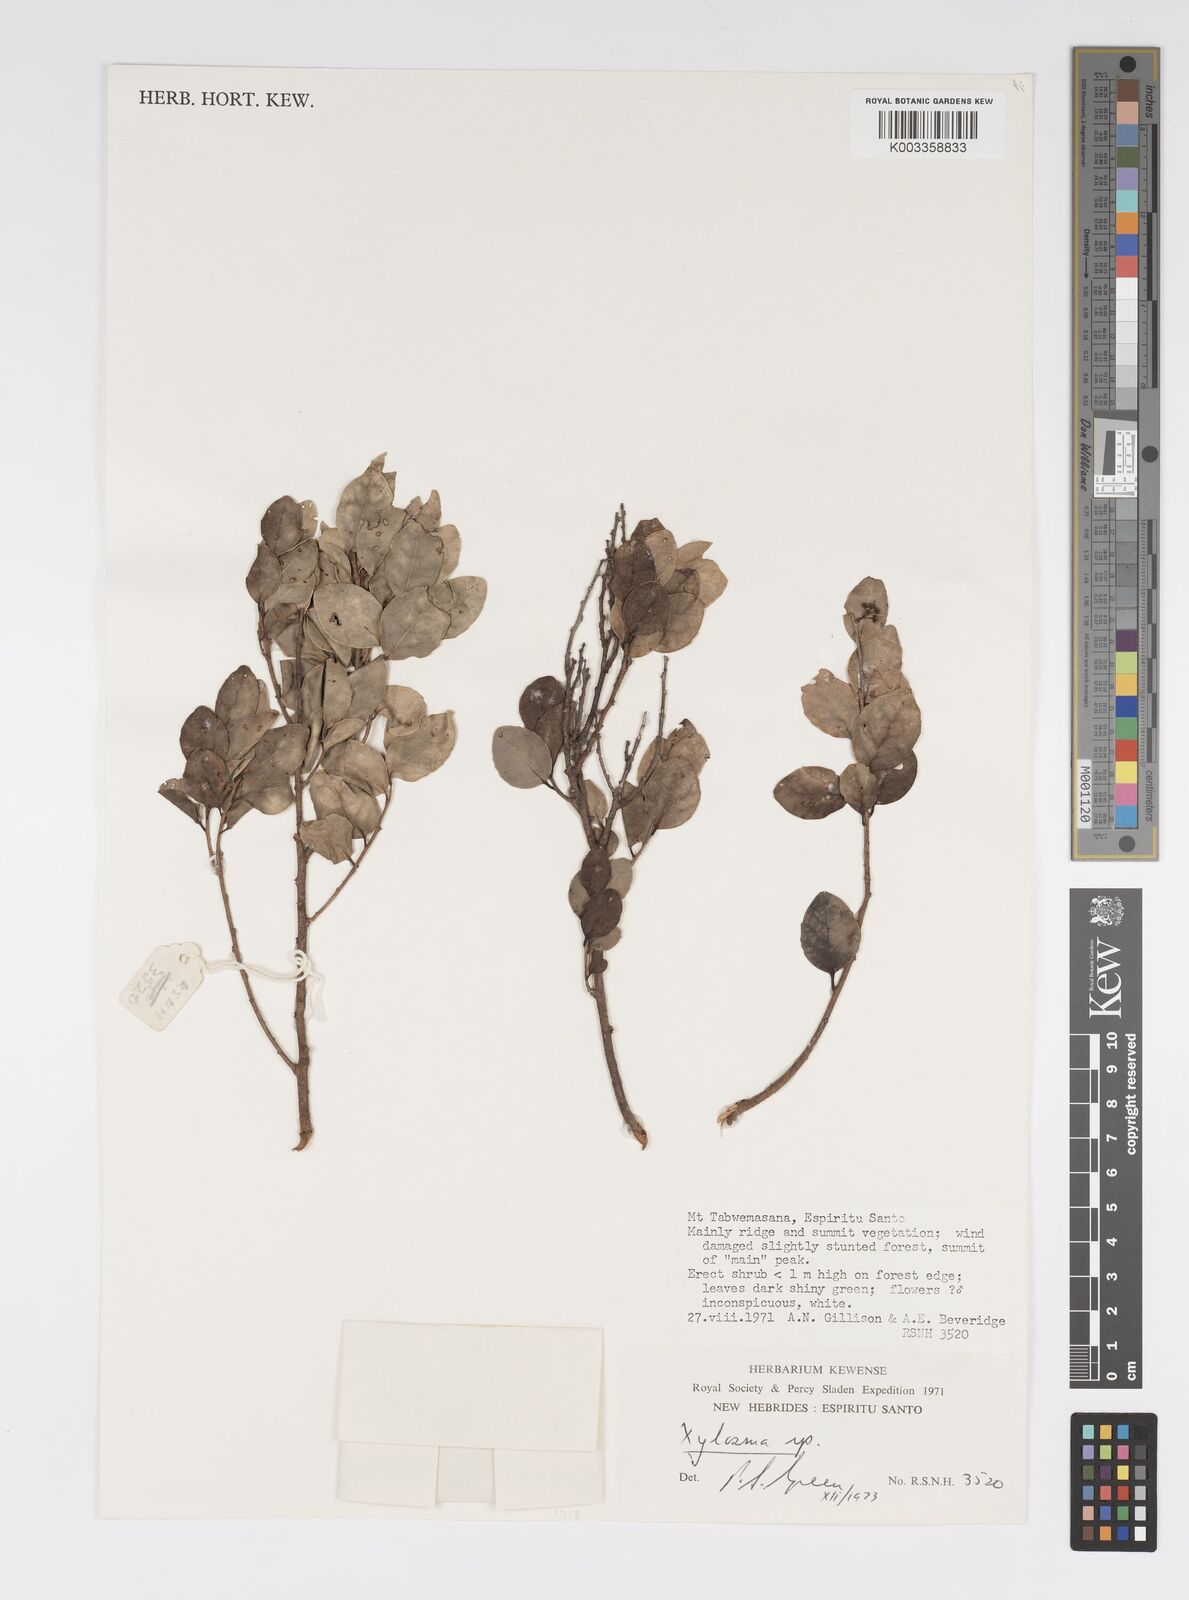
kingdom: Plantae
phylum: Tracheophyta
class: Magnoliopsida
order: Malpighiales
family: Salicaceae
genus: Xylosma
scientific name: Xylosma
